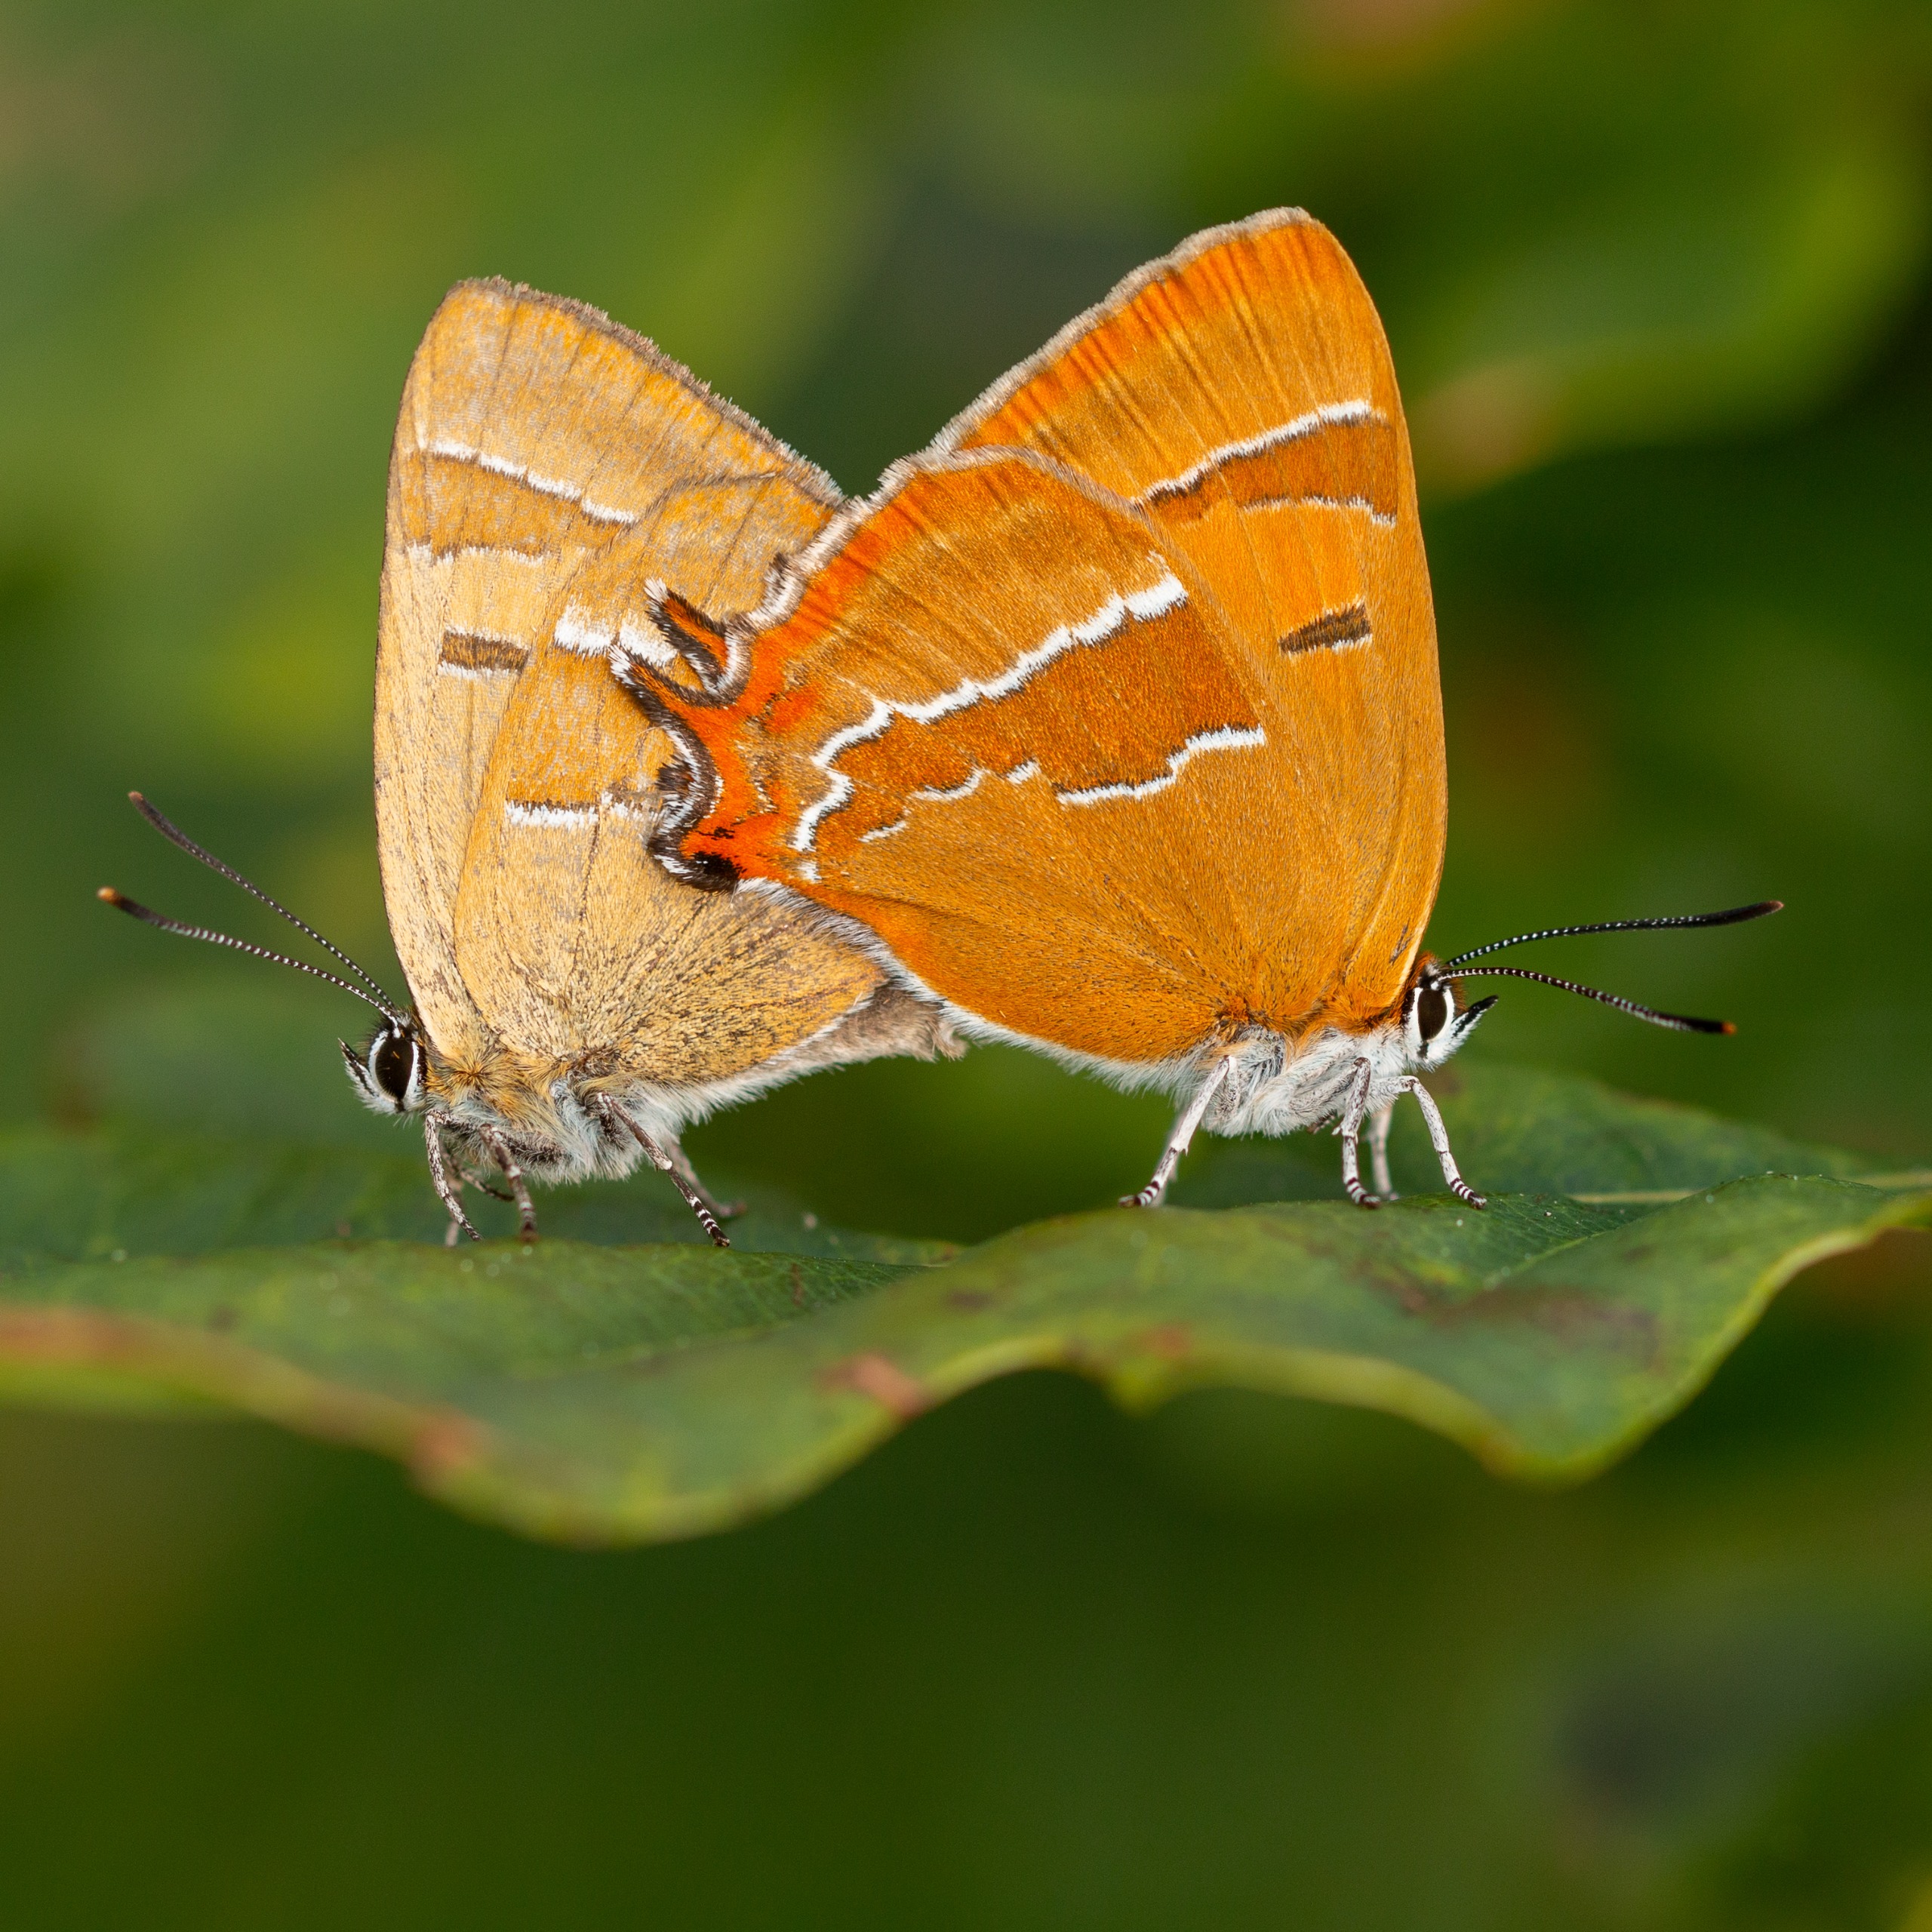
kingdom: Animalia
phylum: Arthropoda
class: Insecta
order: Lepidoptera
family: Lycaenidae
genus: Thecla
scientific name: Thecla betulae
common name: Guldhale
